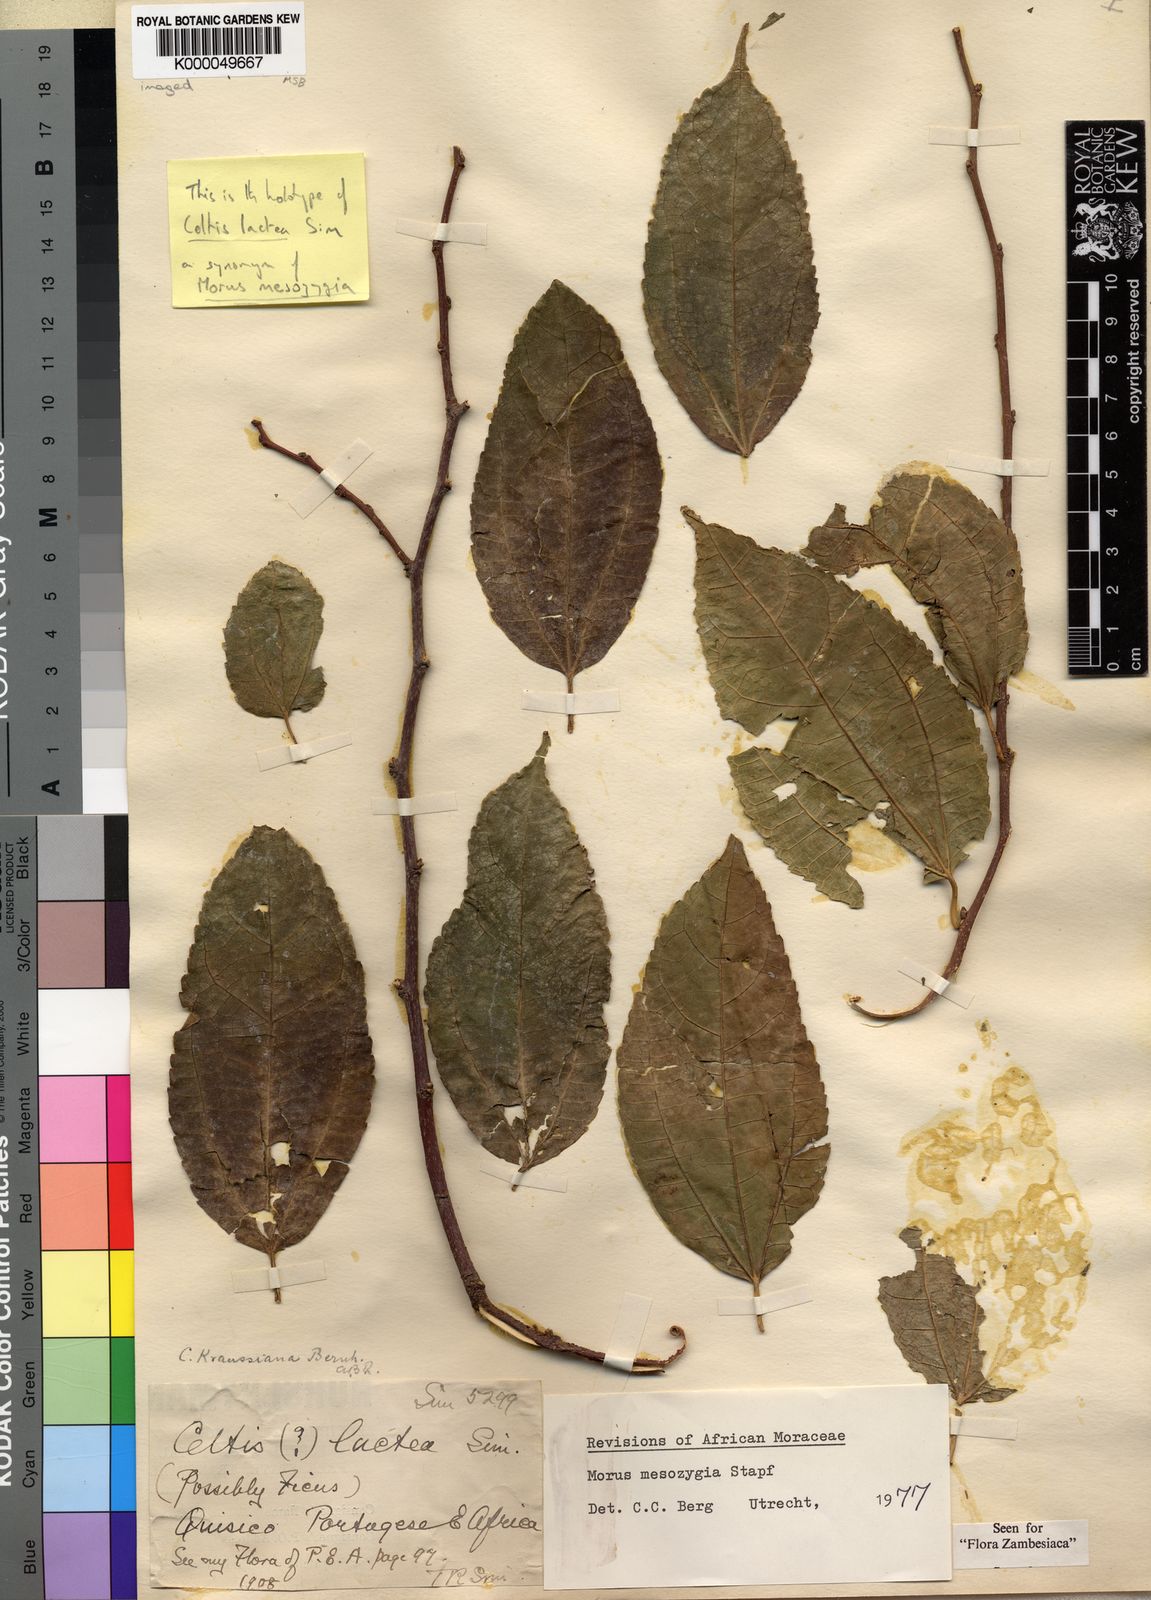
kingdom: Plantae
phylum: Tracheophyta
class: Magnoliopsida
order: Rosales
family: Moraceae
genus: Morus
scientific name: Morus
